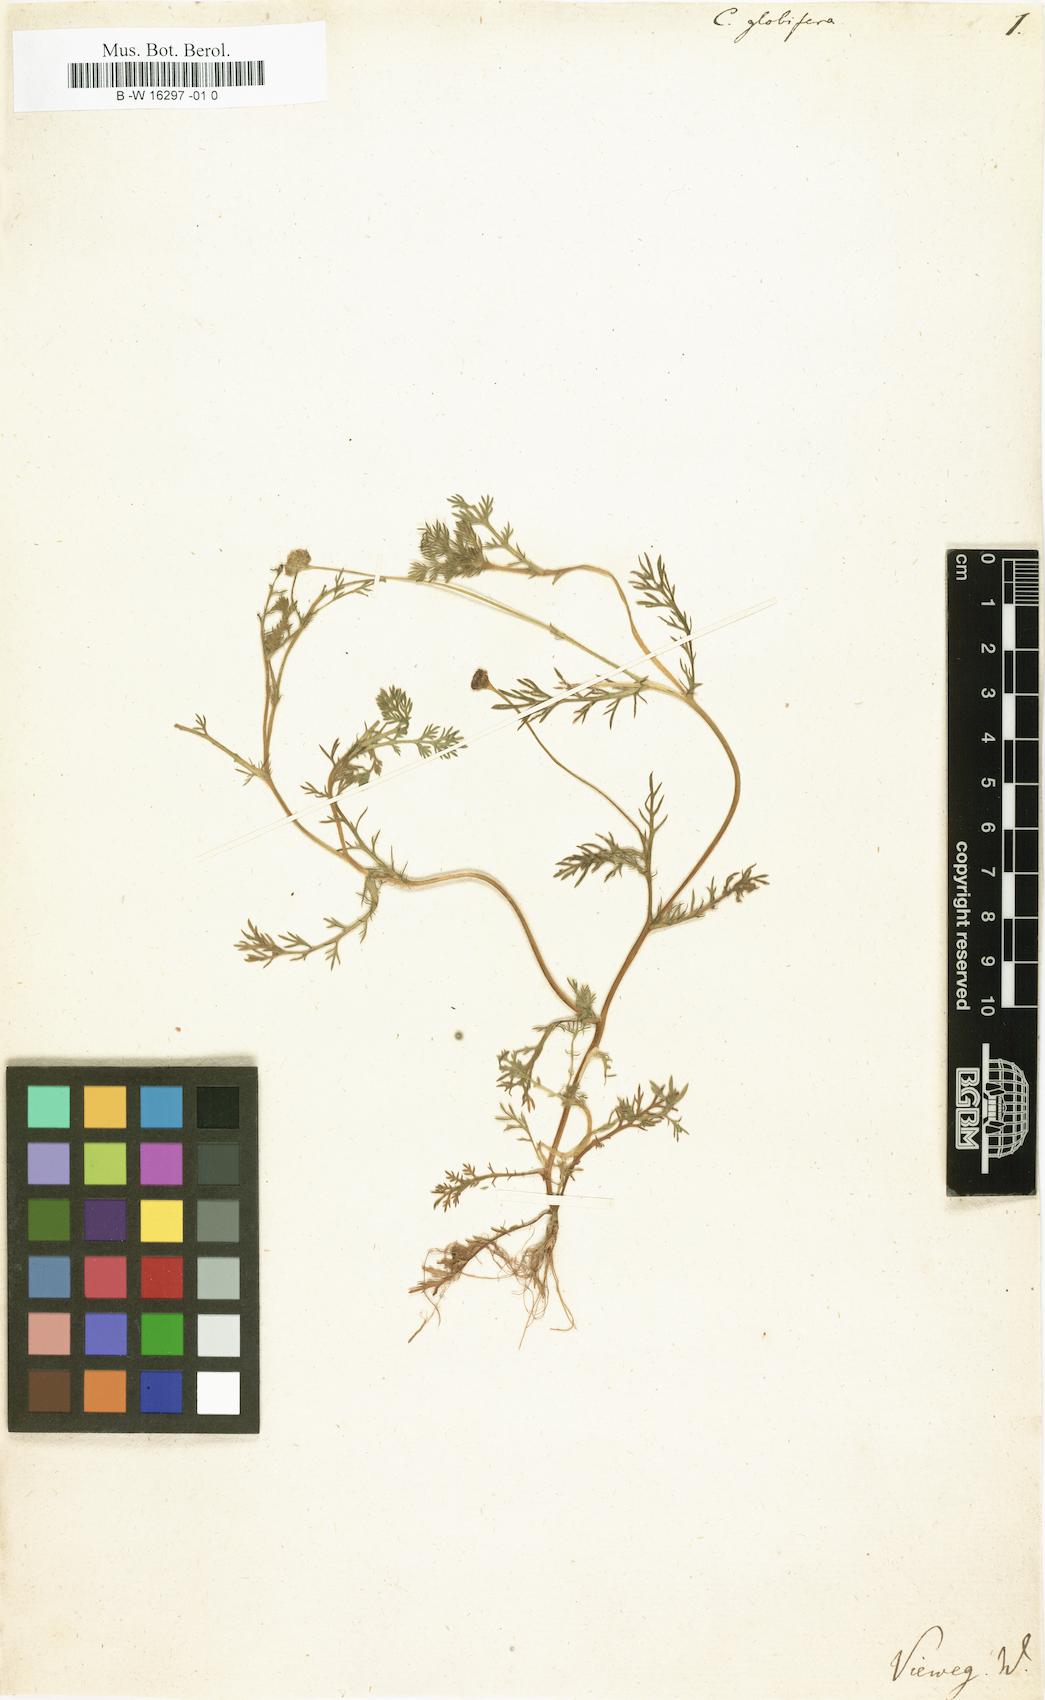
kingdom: Plantae
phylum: Tracheophyta
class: Magnoliopsida
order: Asterales
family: Asteraceae
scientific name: Asteraceae
